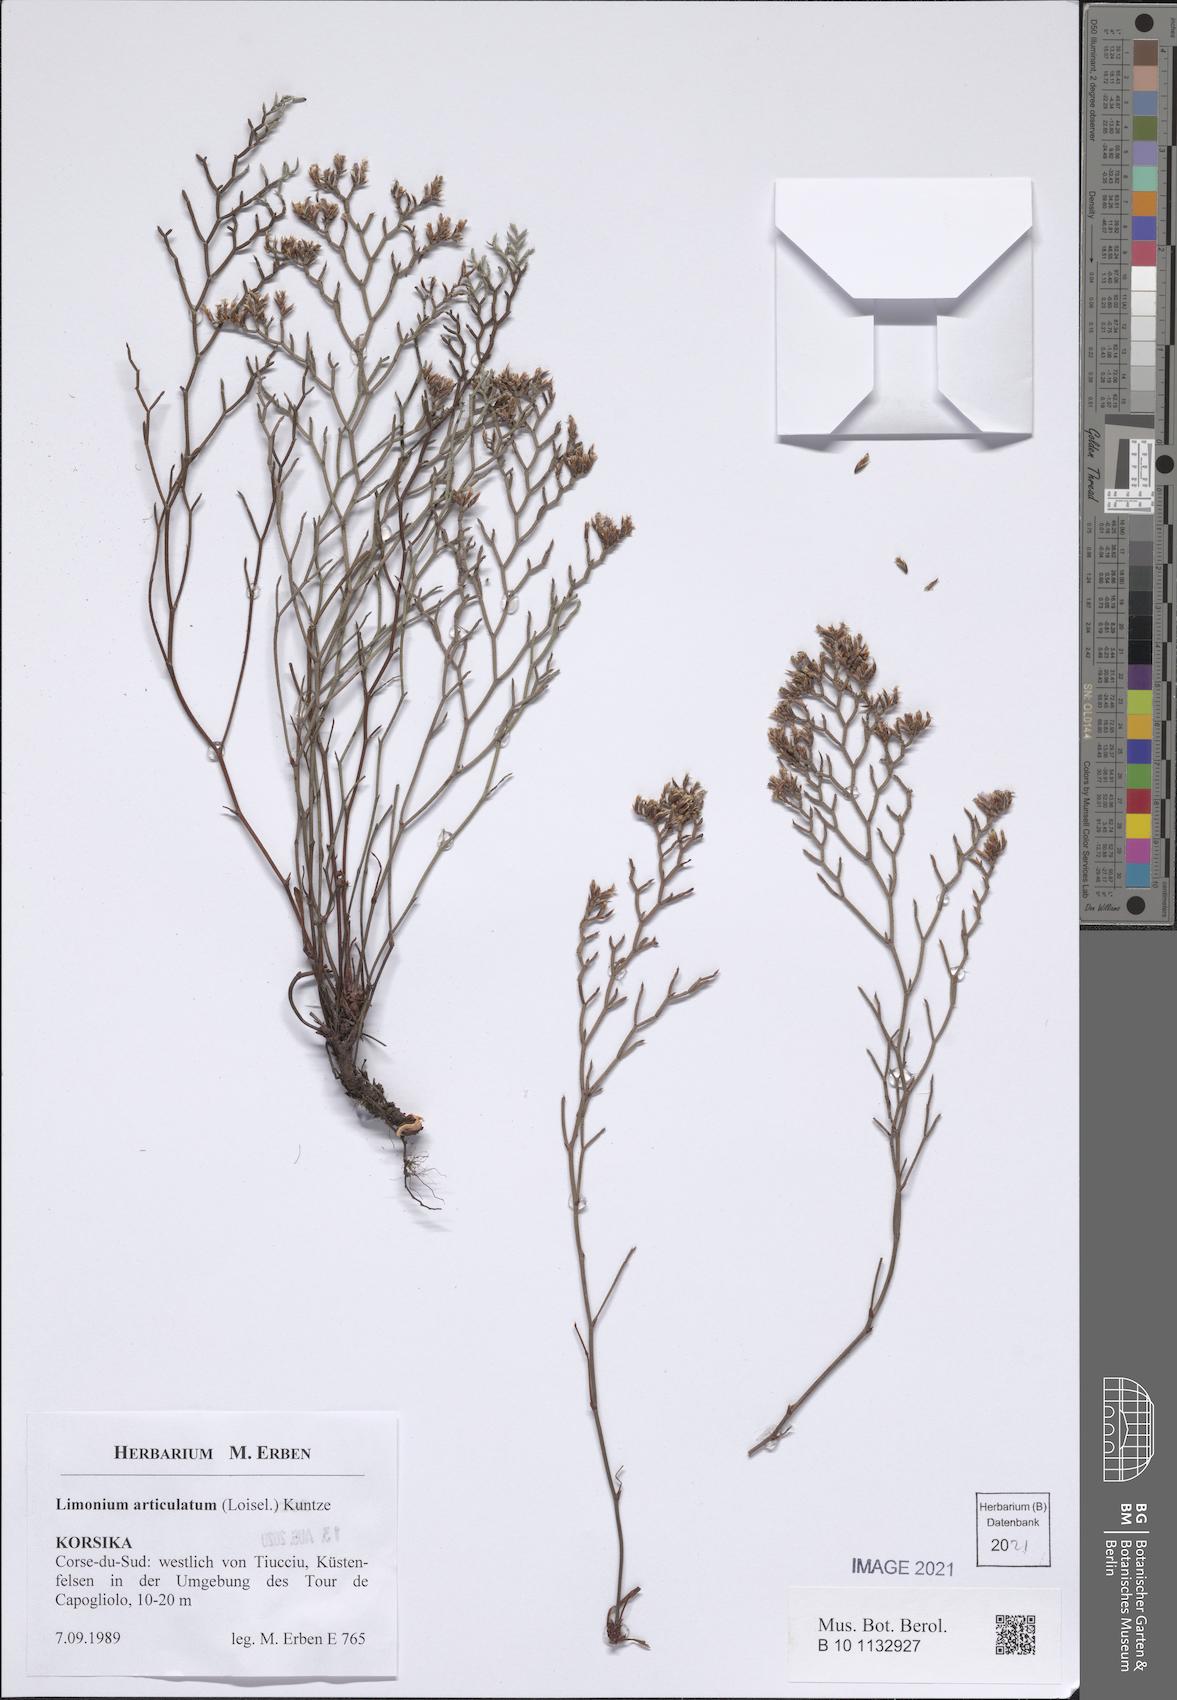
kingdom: Plantae
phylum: Tracheophyta
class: Magnoliopsida
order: Caryophyllales
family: Plumbaginaceae
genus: Limonium
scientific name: Limonium articulatum
